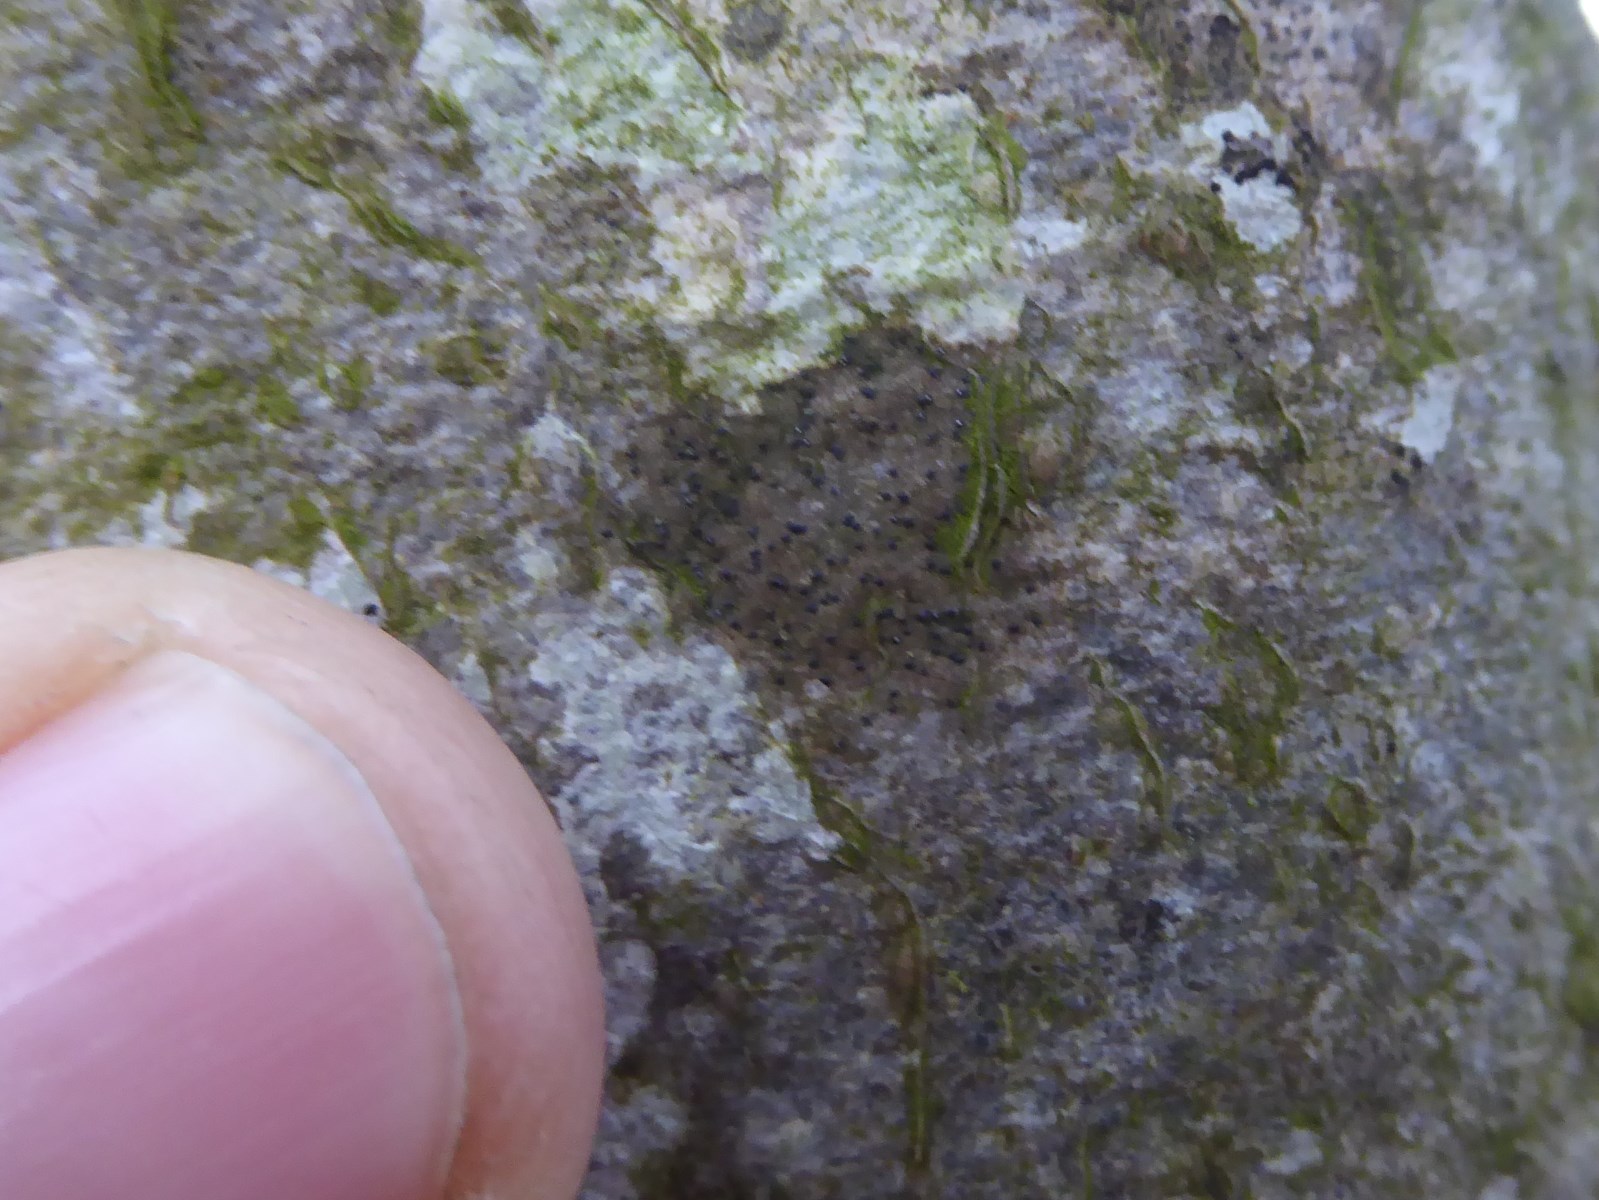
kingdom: Fungi
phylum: Ascomycota
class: Lecanoromycetes
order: Ostropales
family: Porinaceae
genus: Pseudosagedia
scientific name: Pseudosagedia aenea
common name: grønlig porina
